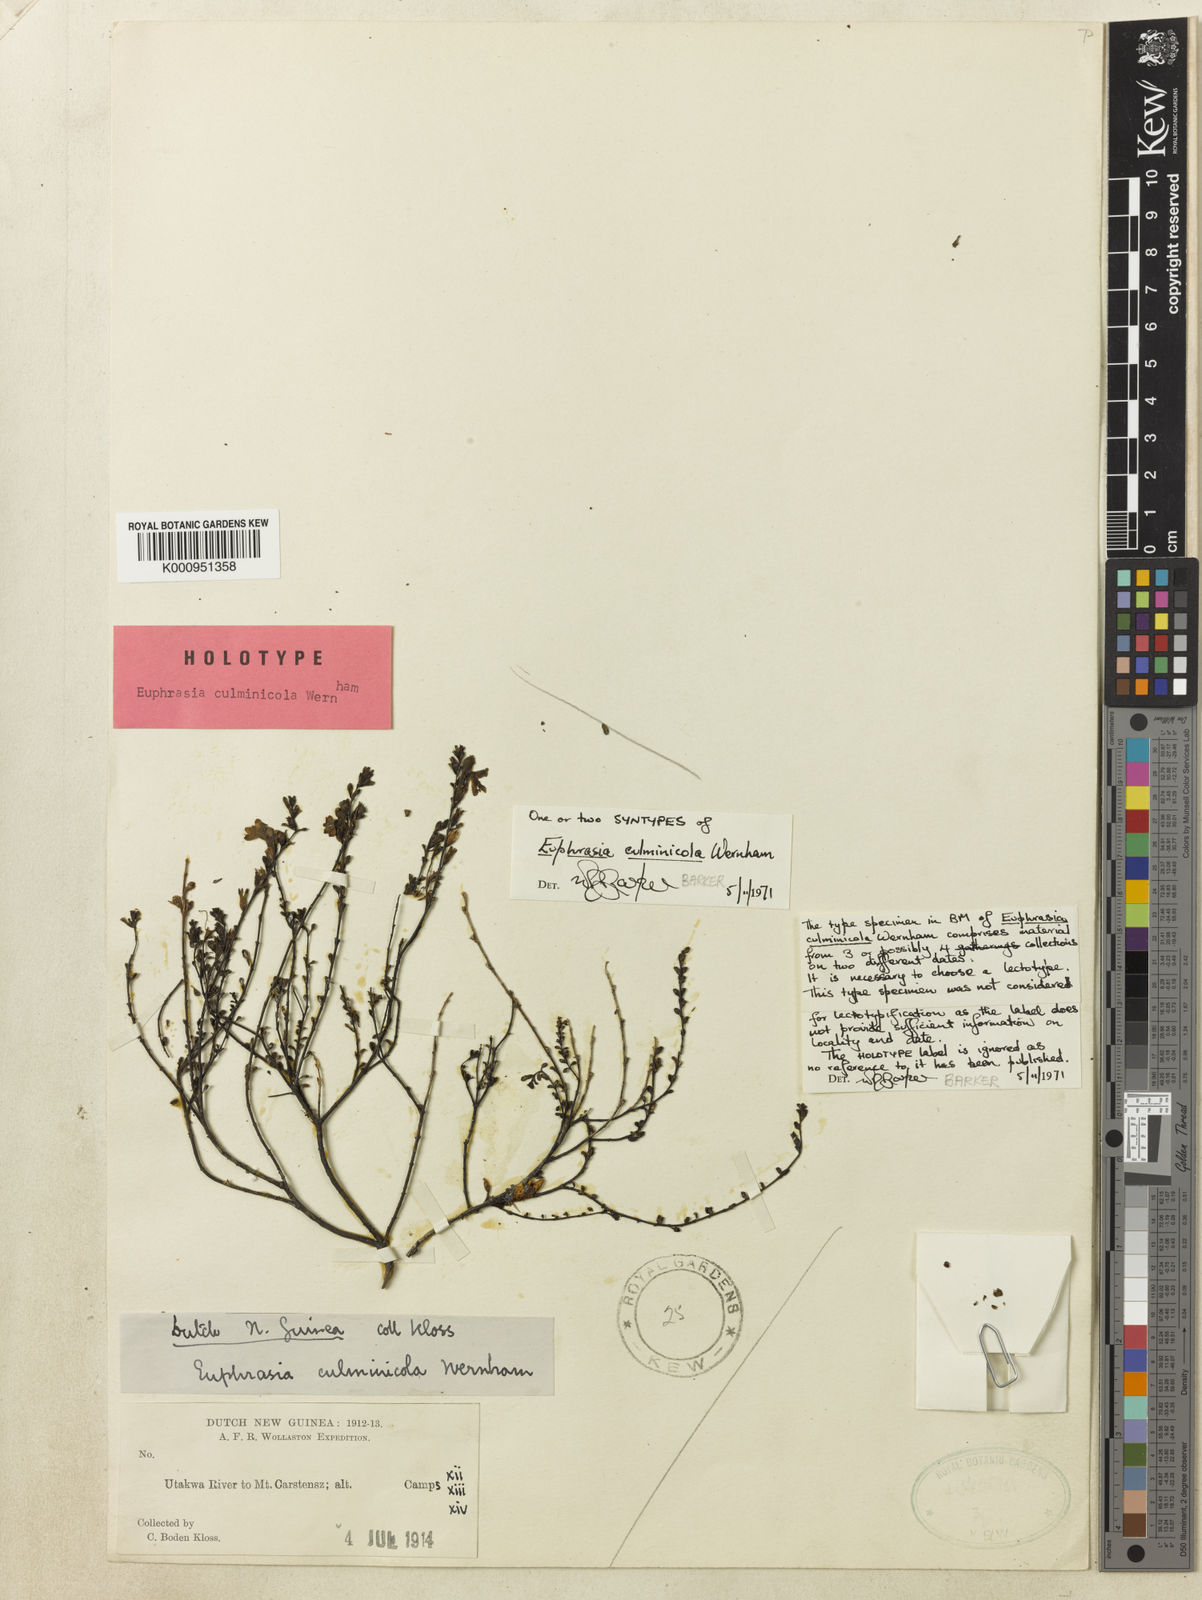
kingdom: Plantae
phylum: Tracheophyta
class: Magnoliopsida
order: Lamiales
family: Orobanchaceae
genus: Euphrasia
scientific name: Euphrasia culminicola
